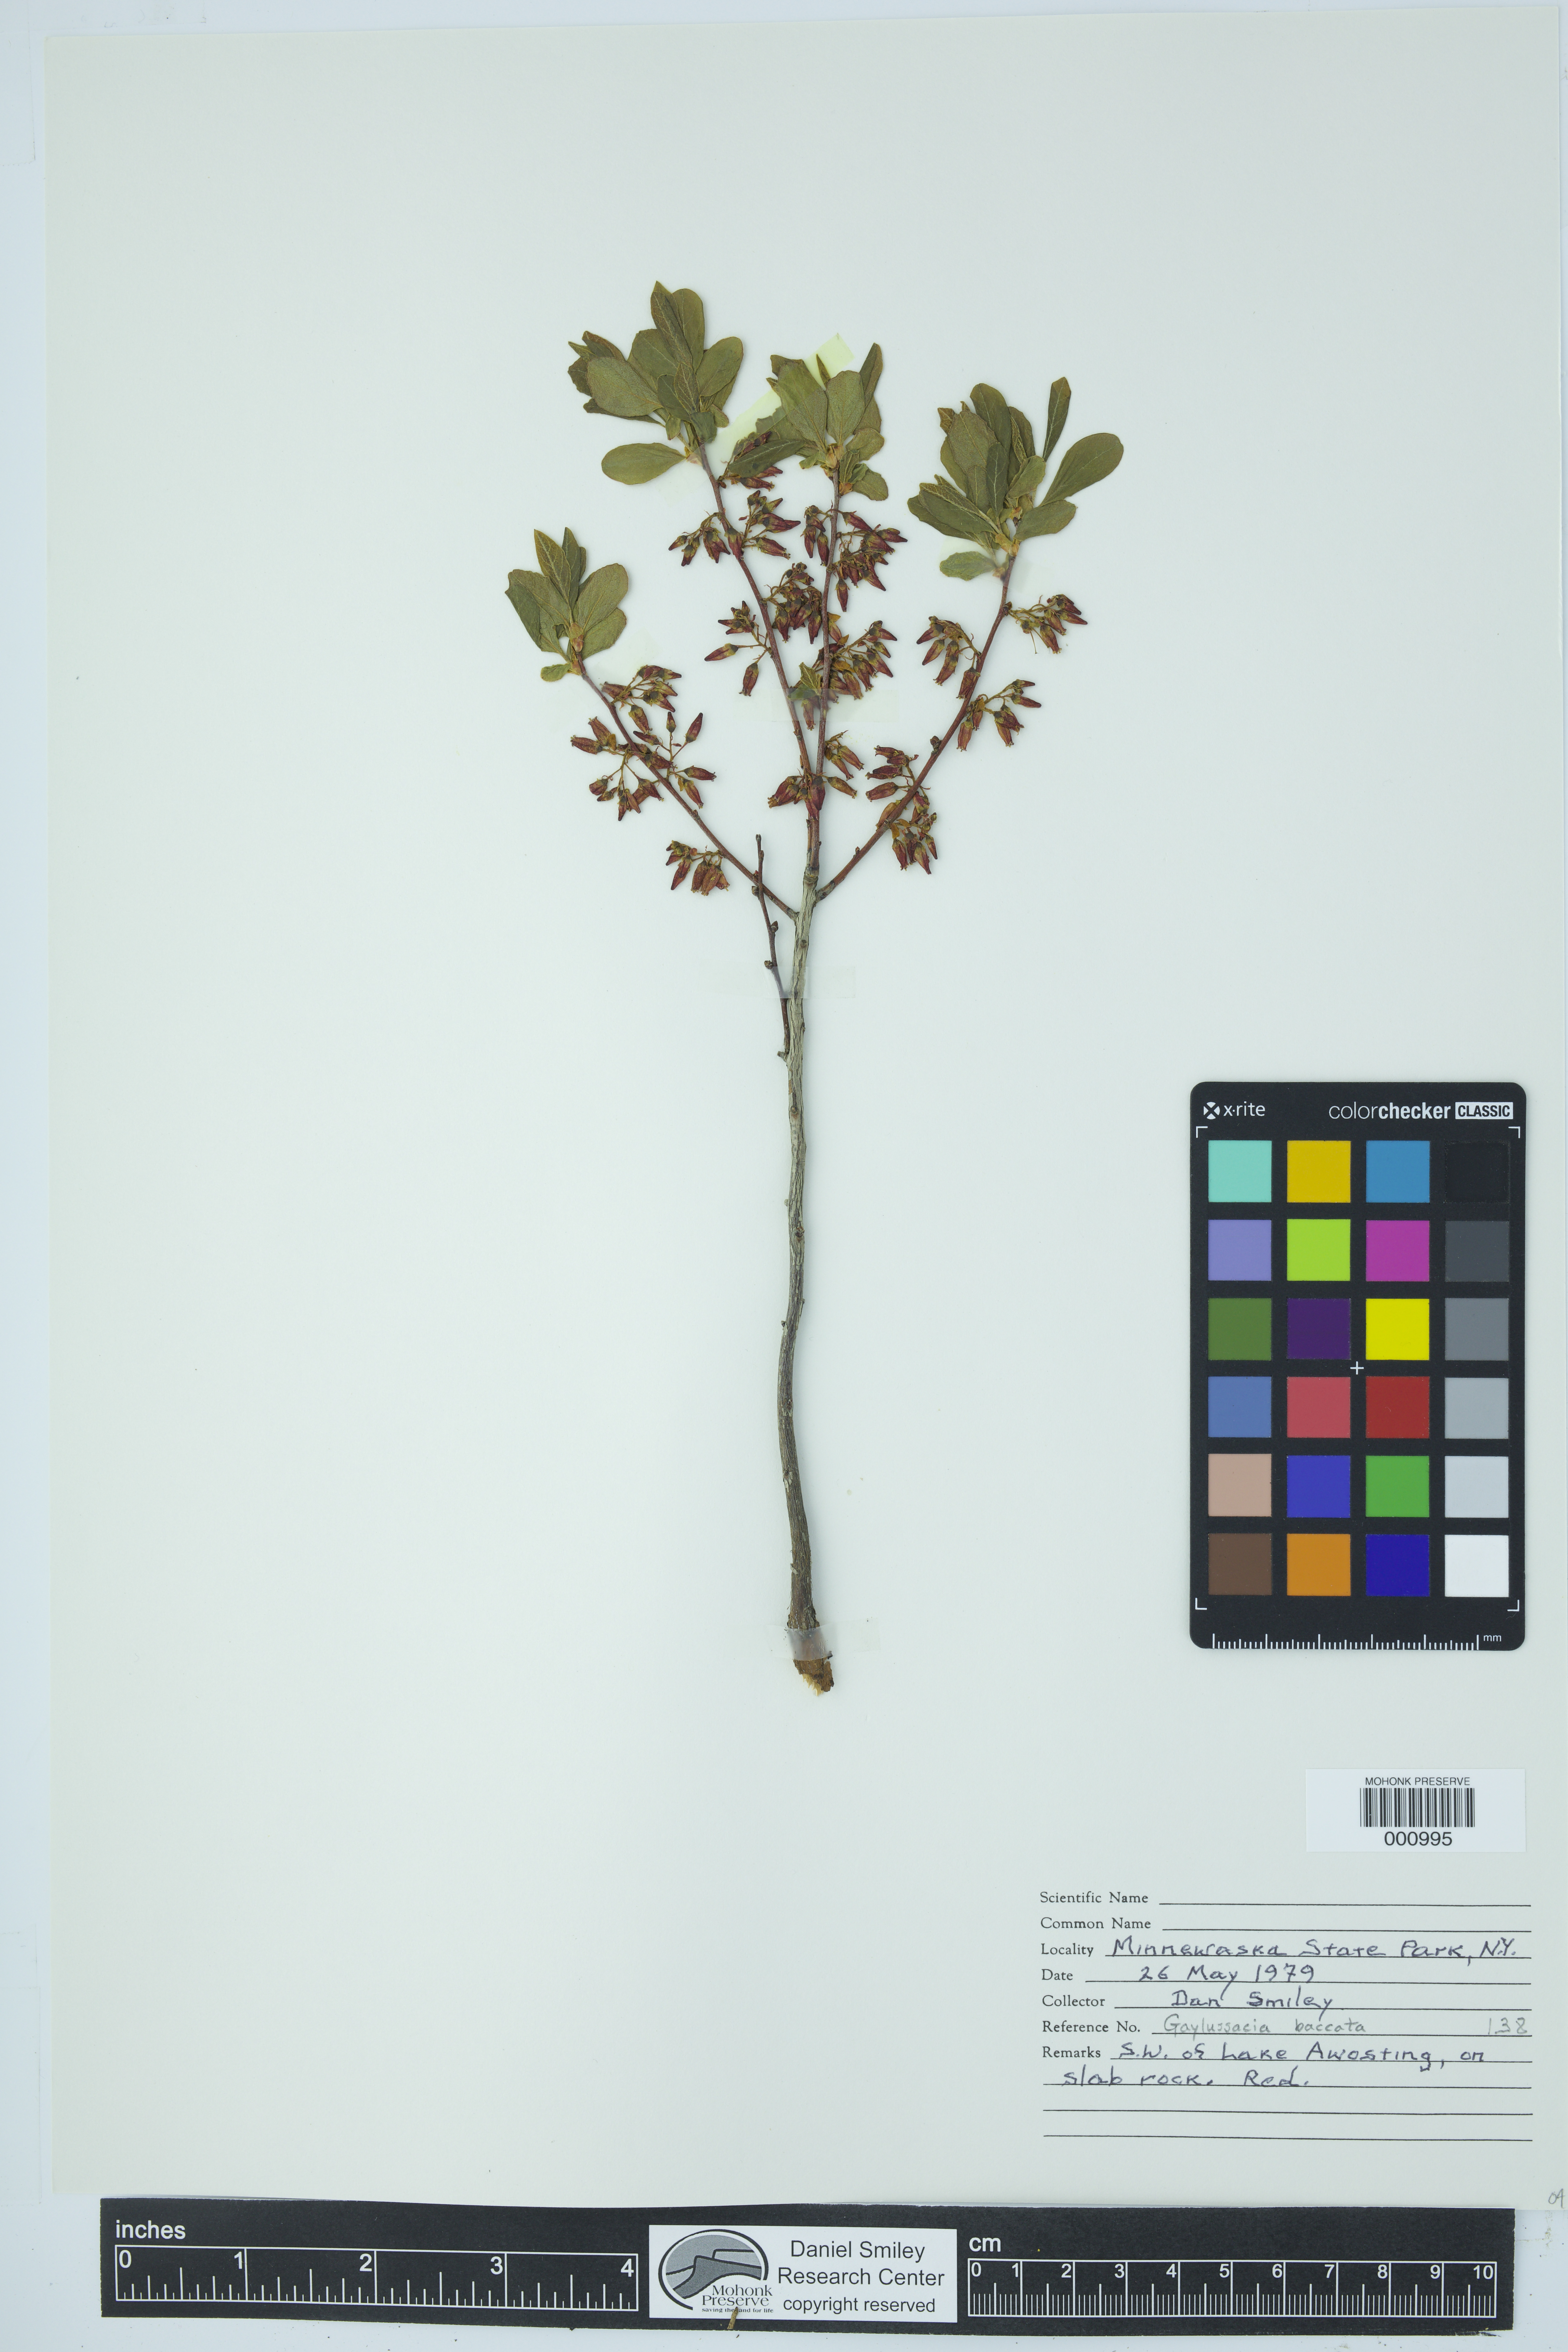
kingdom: Plantae
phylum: Tracheophyta
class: Magnoliopsida
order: Ericales
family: Ericaceae
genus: Gaylussacia
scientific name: Gaylussacia baccata
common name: Black huckleberry
